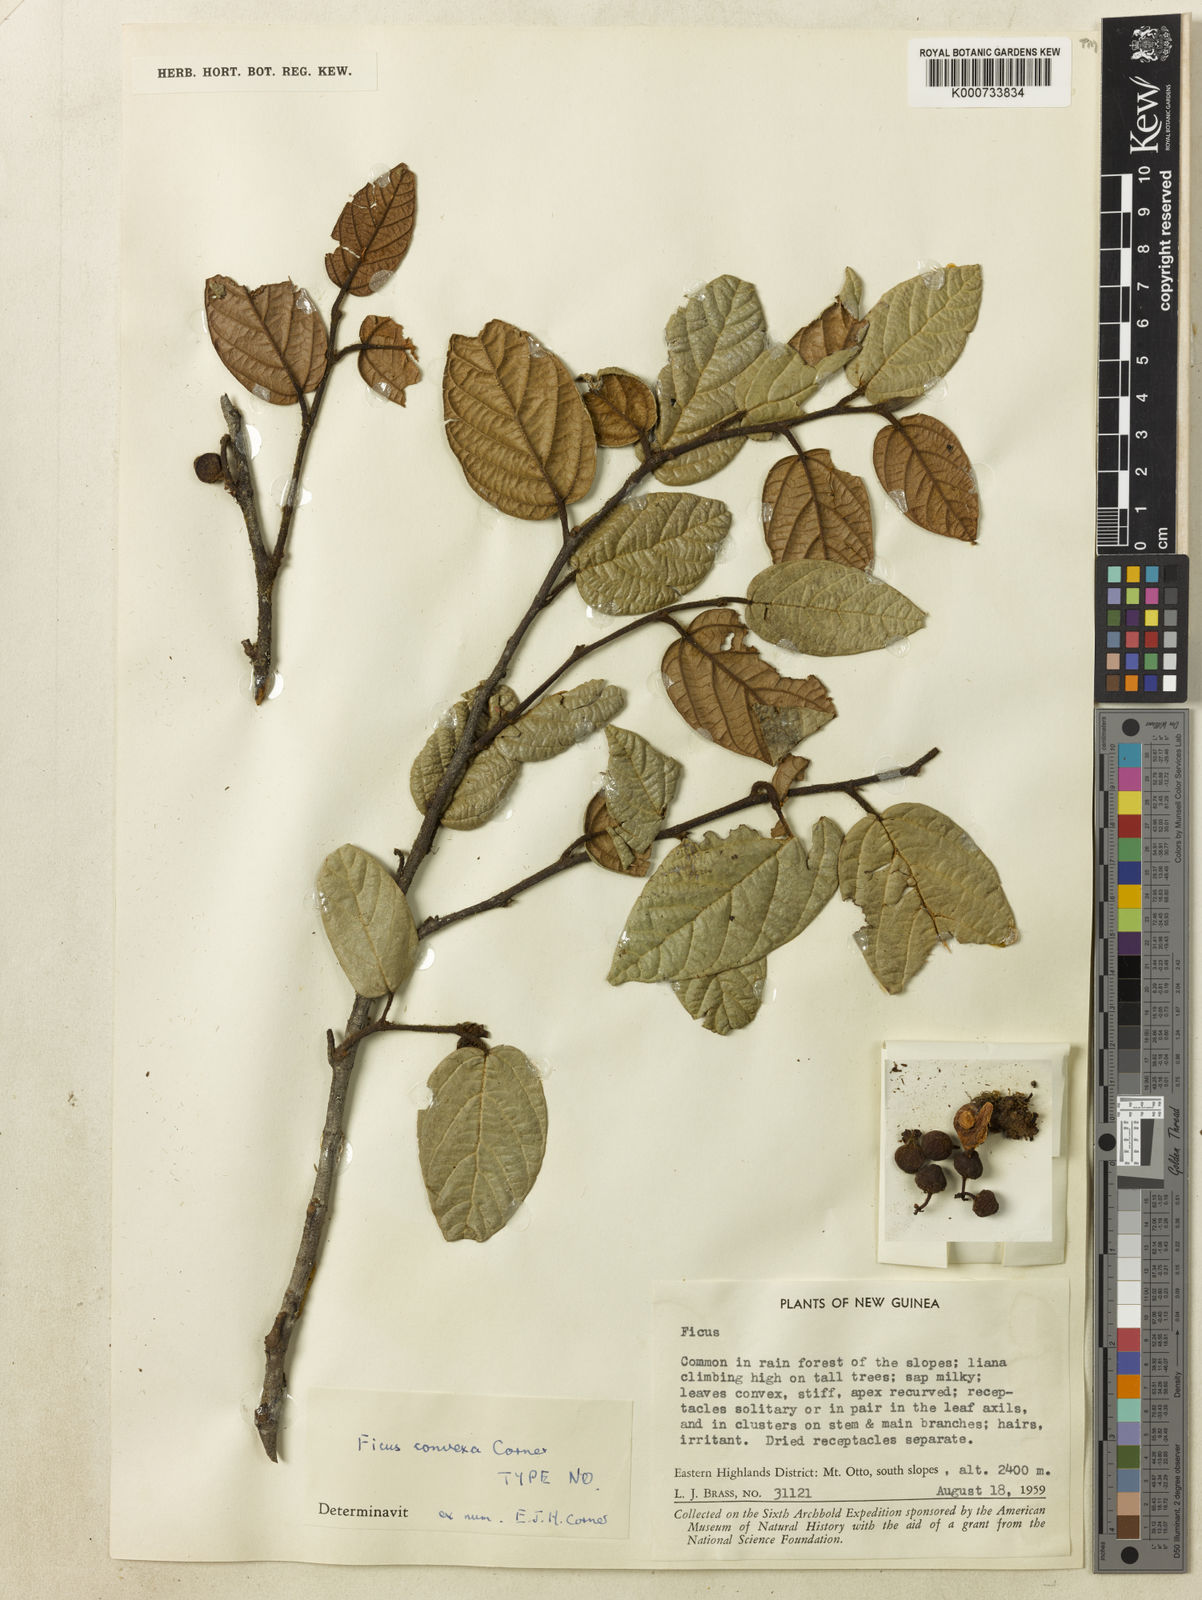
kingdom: Plantae
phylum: Tracheophyta
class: Magnoliopsida
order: Rosales
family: Moraceae
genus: Ficus
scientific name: Ficus insculpta
